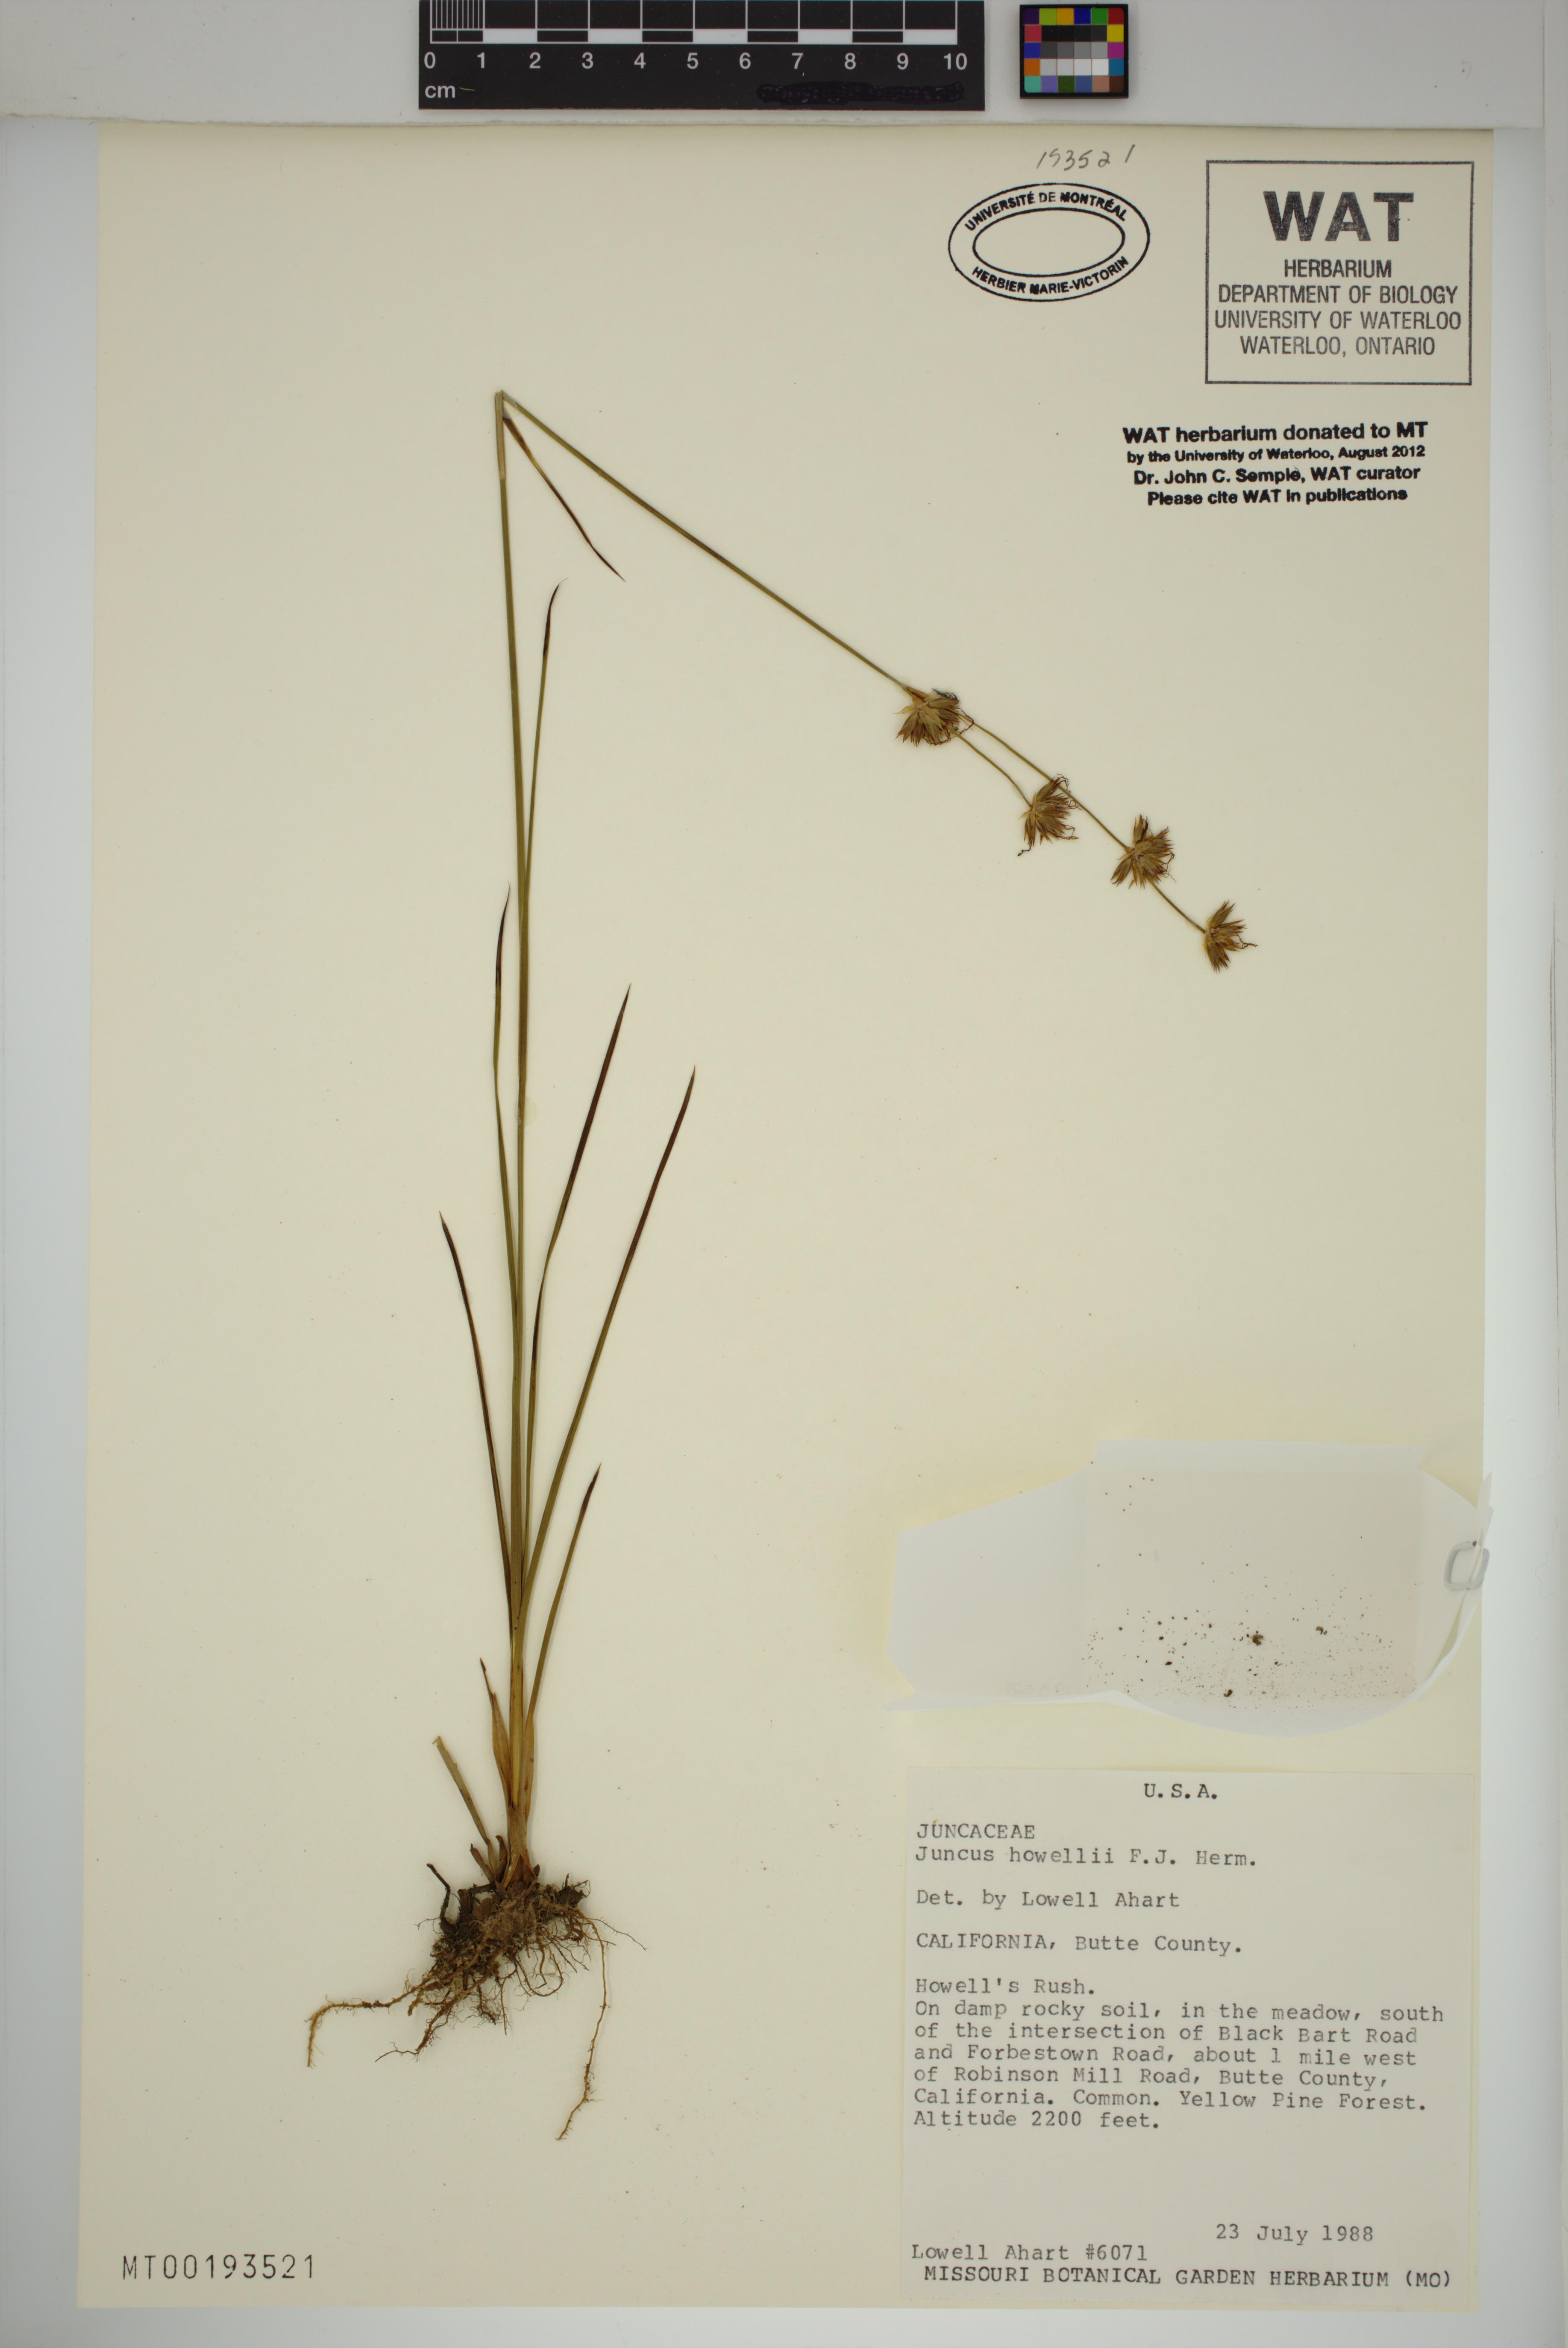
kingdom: Plantae
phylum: Tracheophyta
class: Liliopsida
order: Poales
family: Juncaceae
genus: Juncus
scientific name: Juncus howellii
